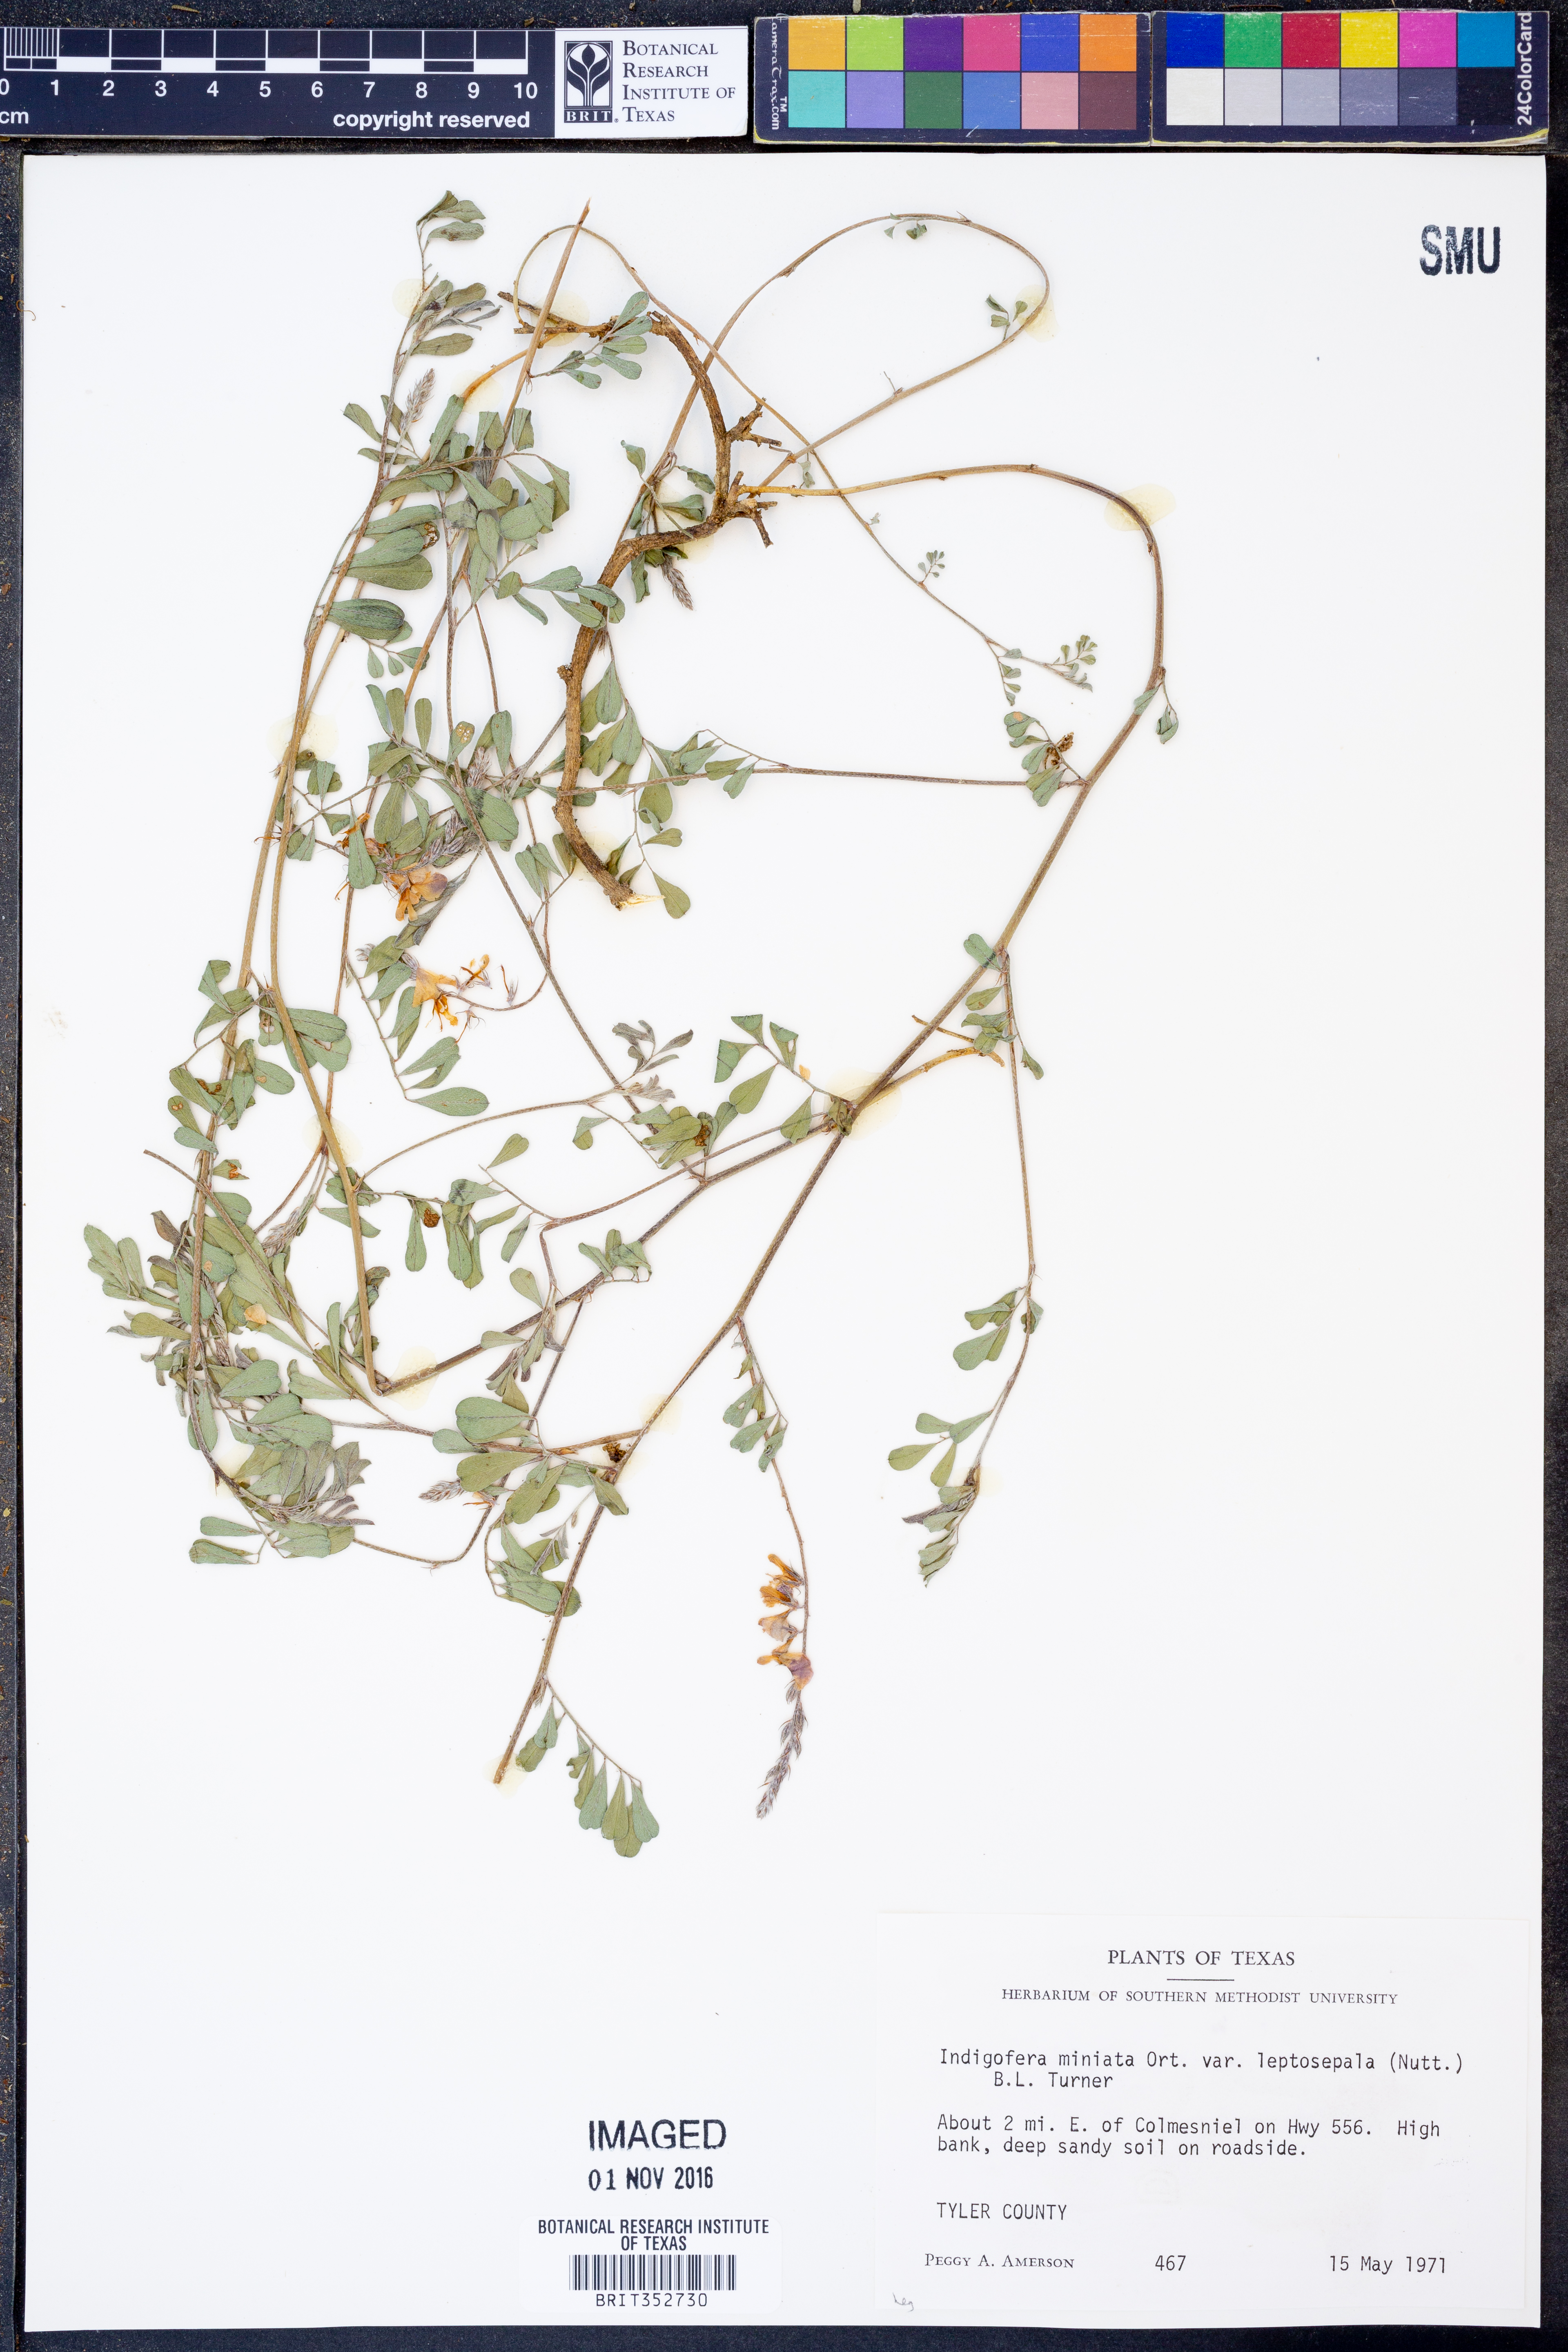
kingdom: Plantae
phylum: Tracheophyta
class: Magnoliopsida
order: Fabales
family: Fabaceae
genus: Indigofera
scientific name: Indigofera miniata
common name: Coast indigo
